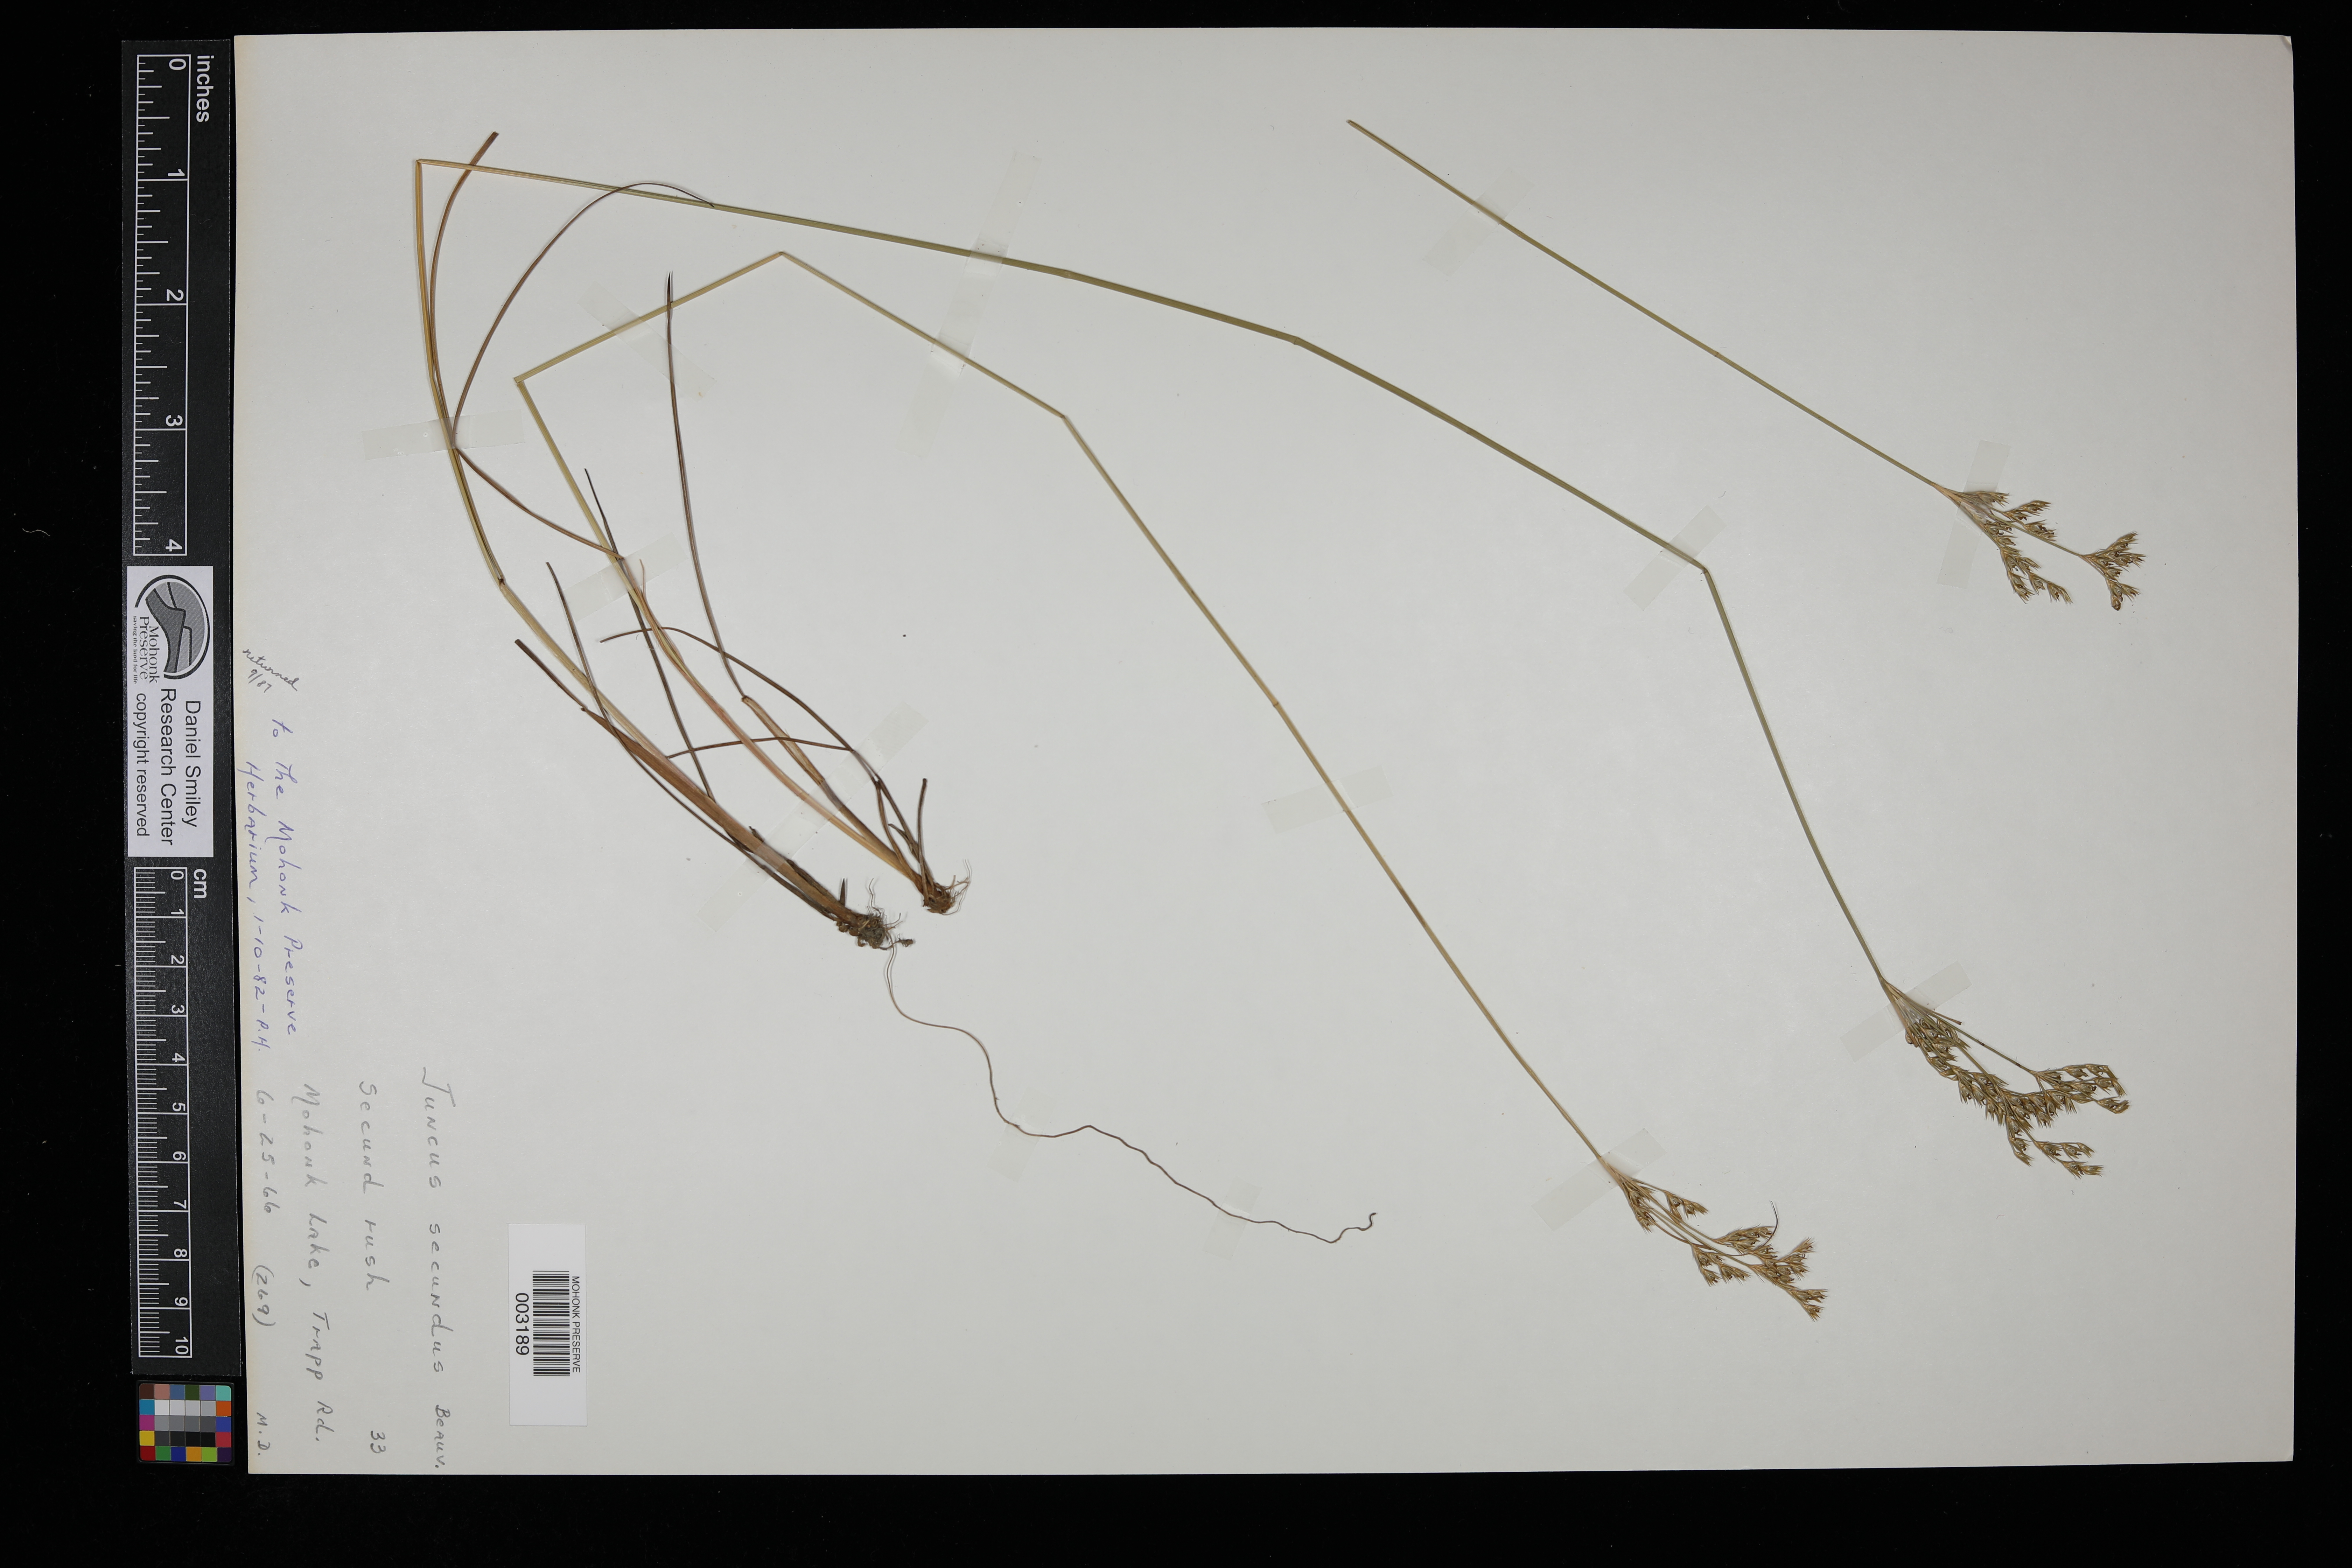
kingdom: Plantae
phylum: Tracheophyta
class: Liliopsida
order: Poales
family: Juncaceae
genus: Juncus
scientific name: Juncus secundus
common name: Lopsided rush
